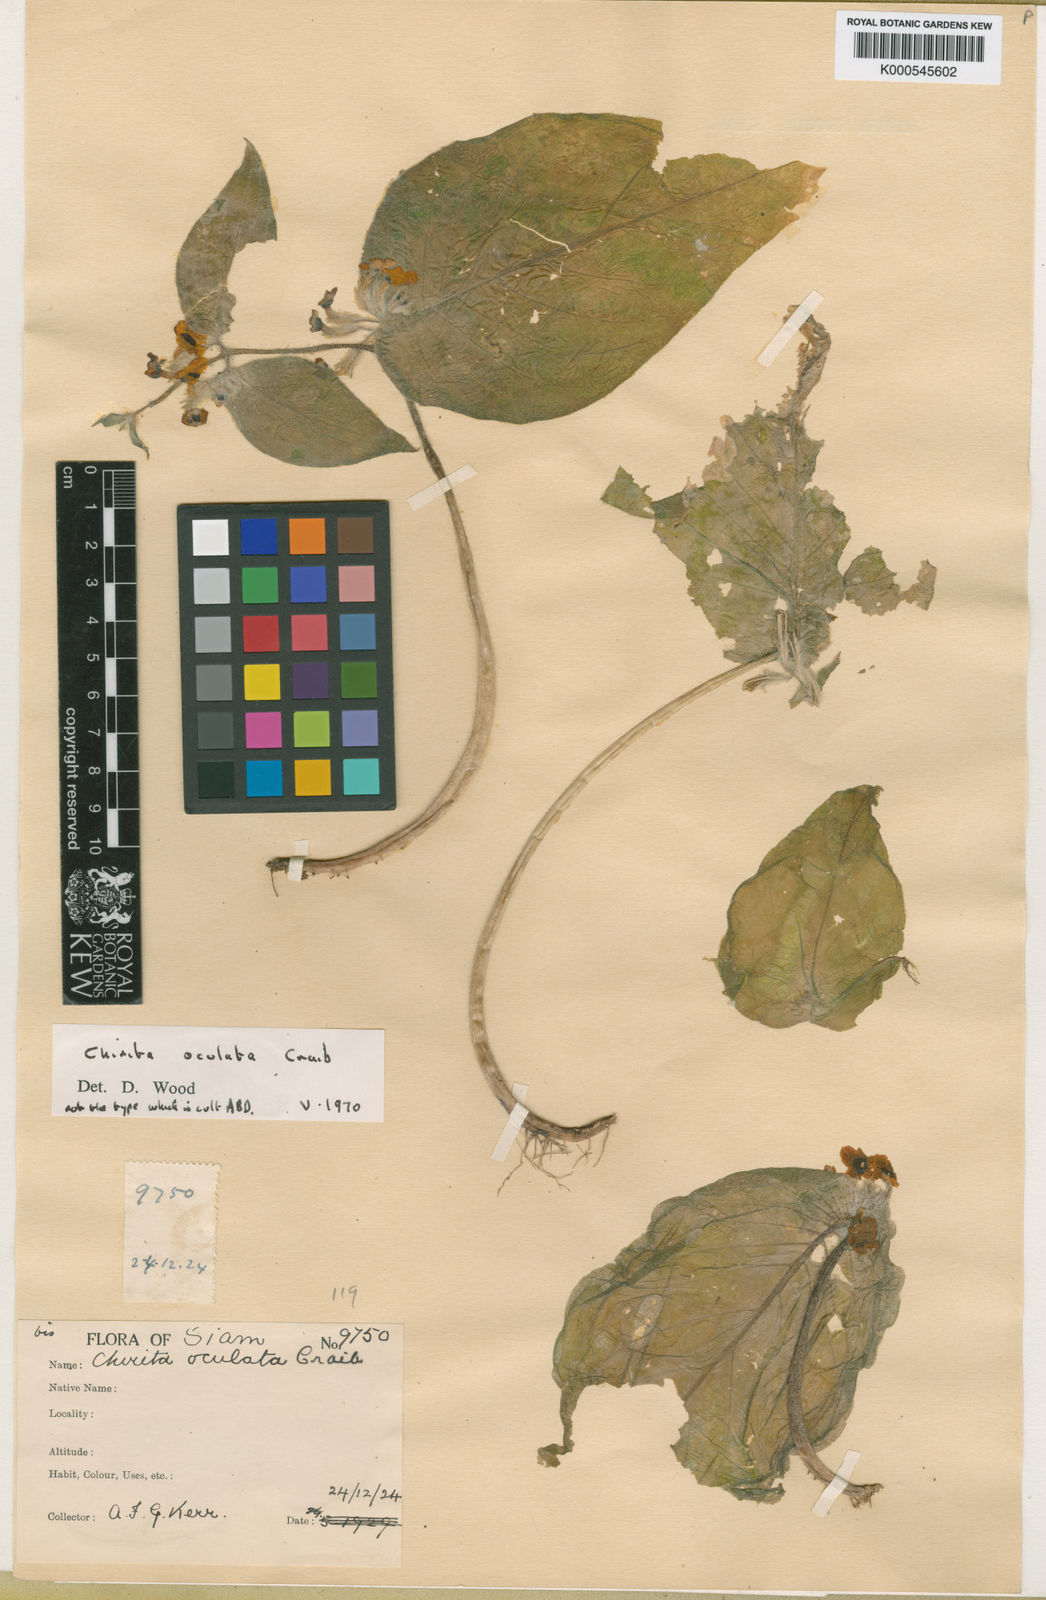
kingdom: Plantae
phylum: Tracheophyta
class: Magnoliopsida
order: Lamiales
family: Gesneriaceae
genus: Microchirita
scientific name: Microchirita oculata
